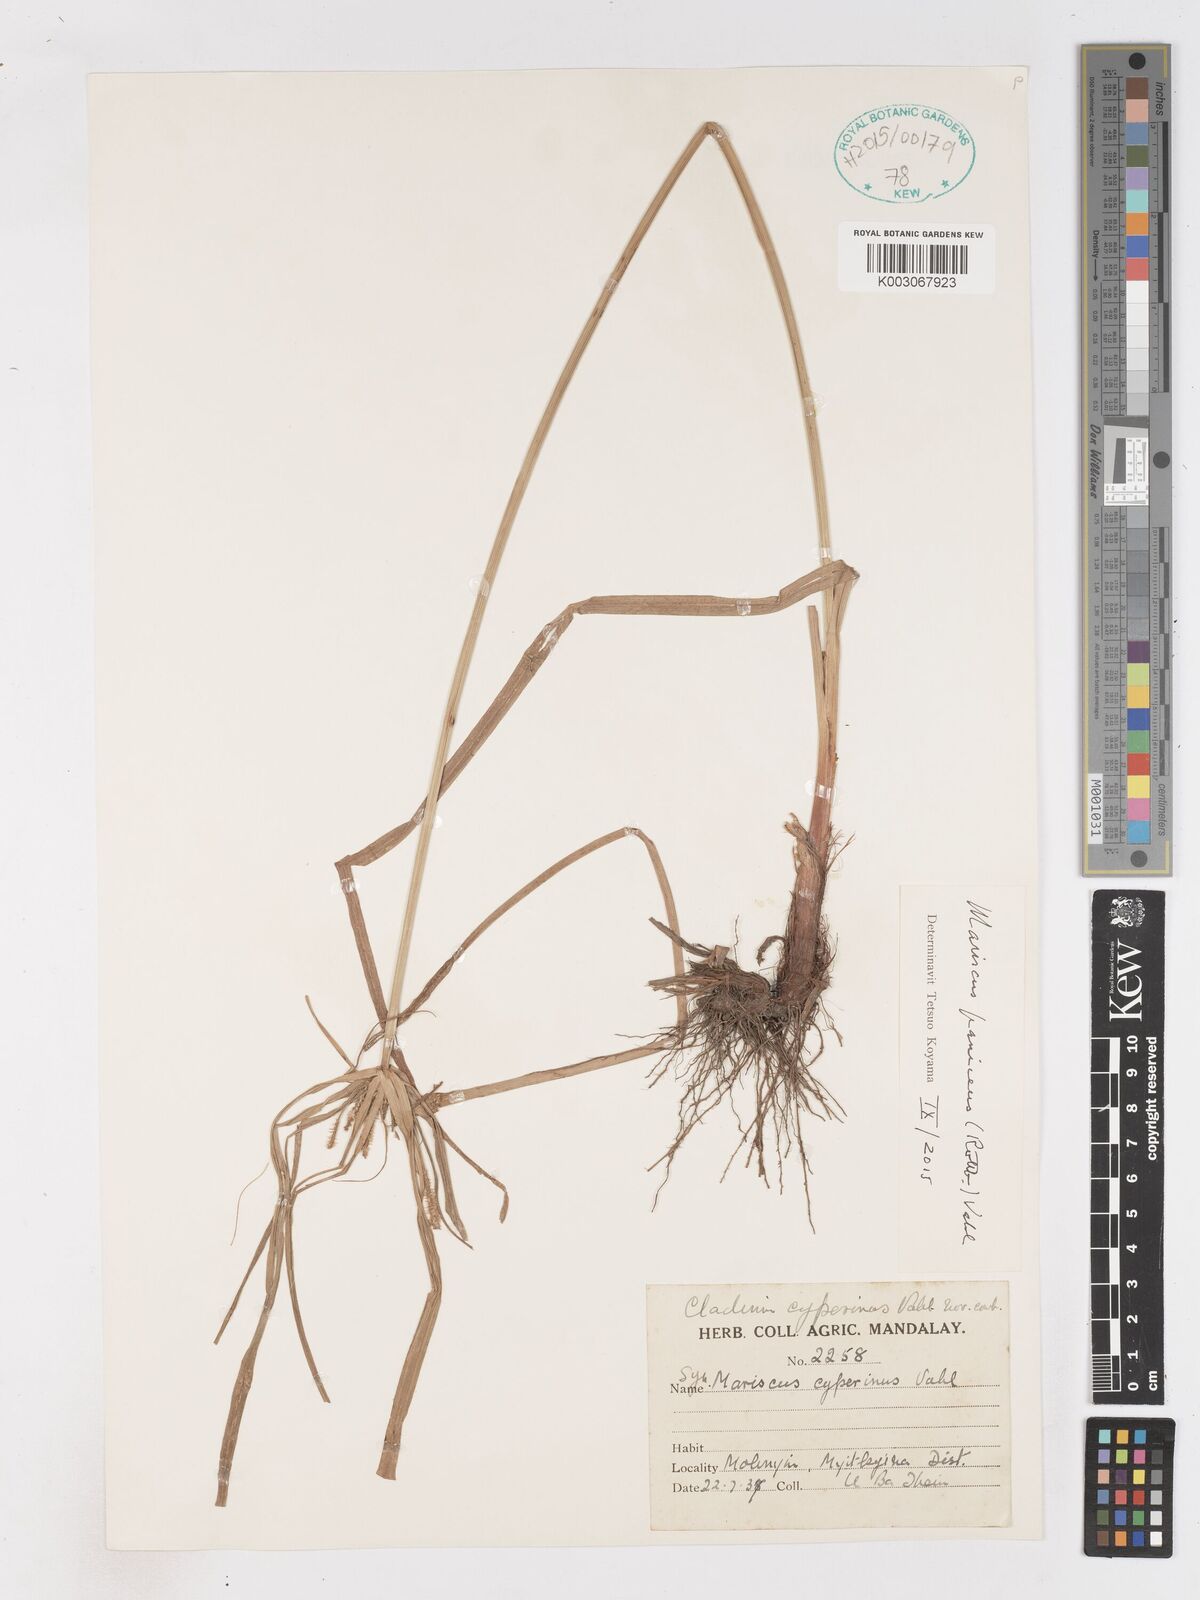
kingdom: Plantae
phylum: Tracheophyta
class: Liliopsida
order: Poales
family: Cyperaceae
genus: Cyperus
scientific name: Cyperus paniceus
